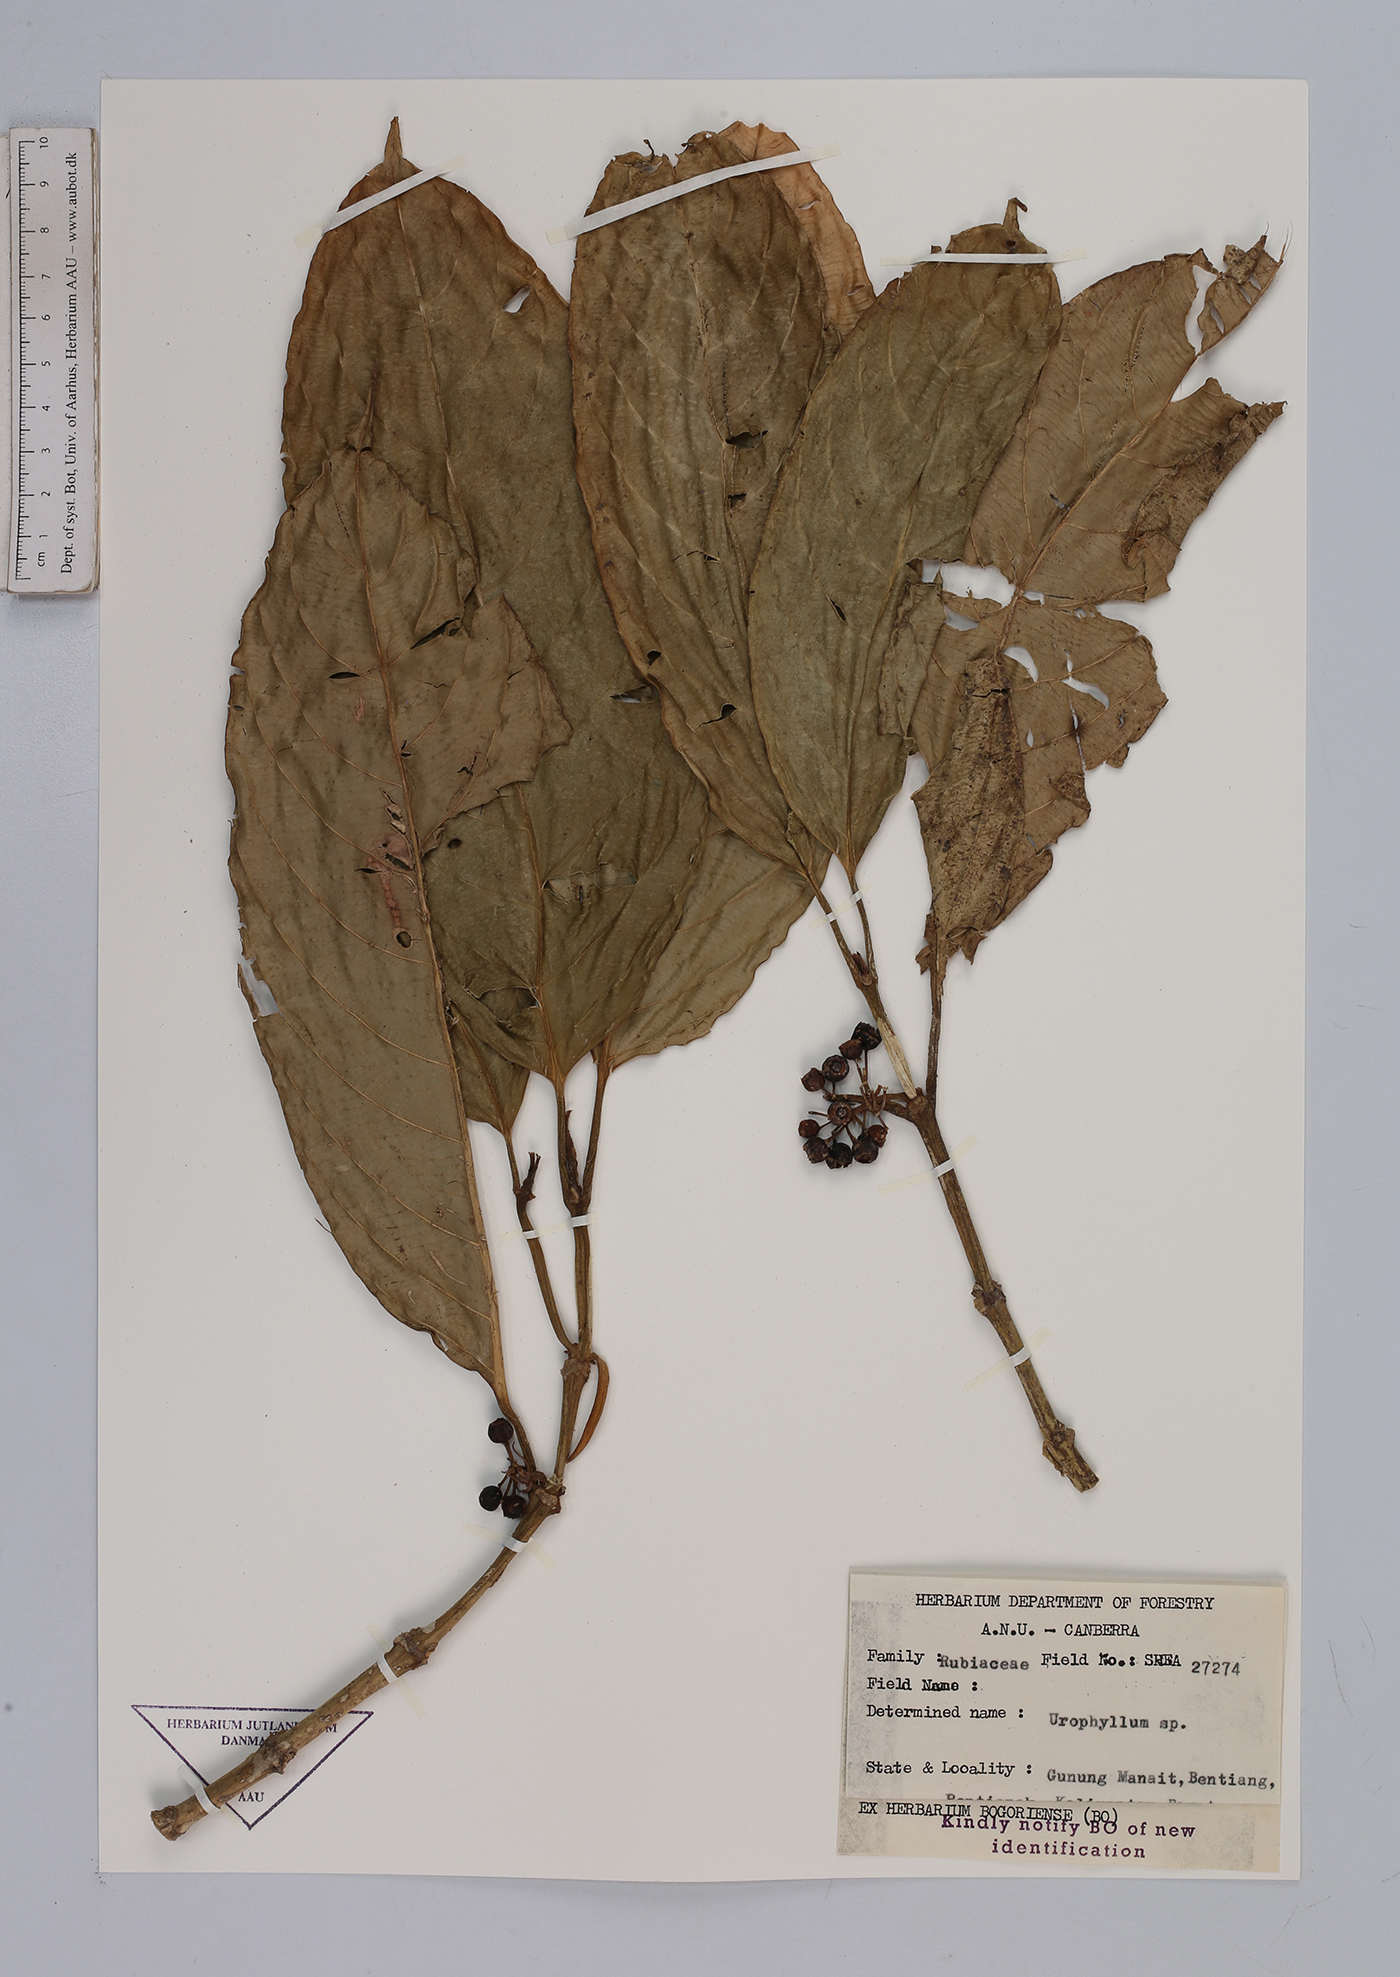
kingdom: Plantae
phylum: Tracheophyta
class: Magnoliopsida
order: Gentianales
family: Rubiaceae
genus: Urophyllum
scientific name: Urophyllum
